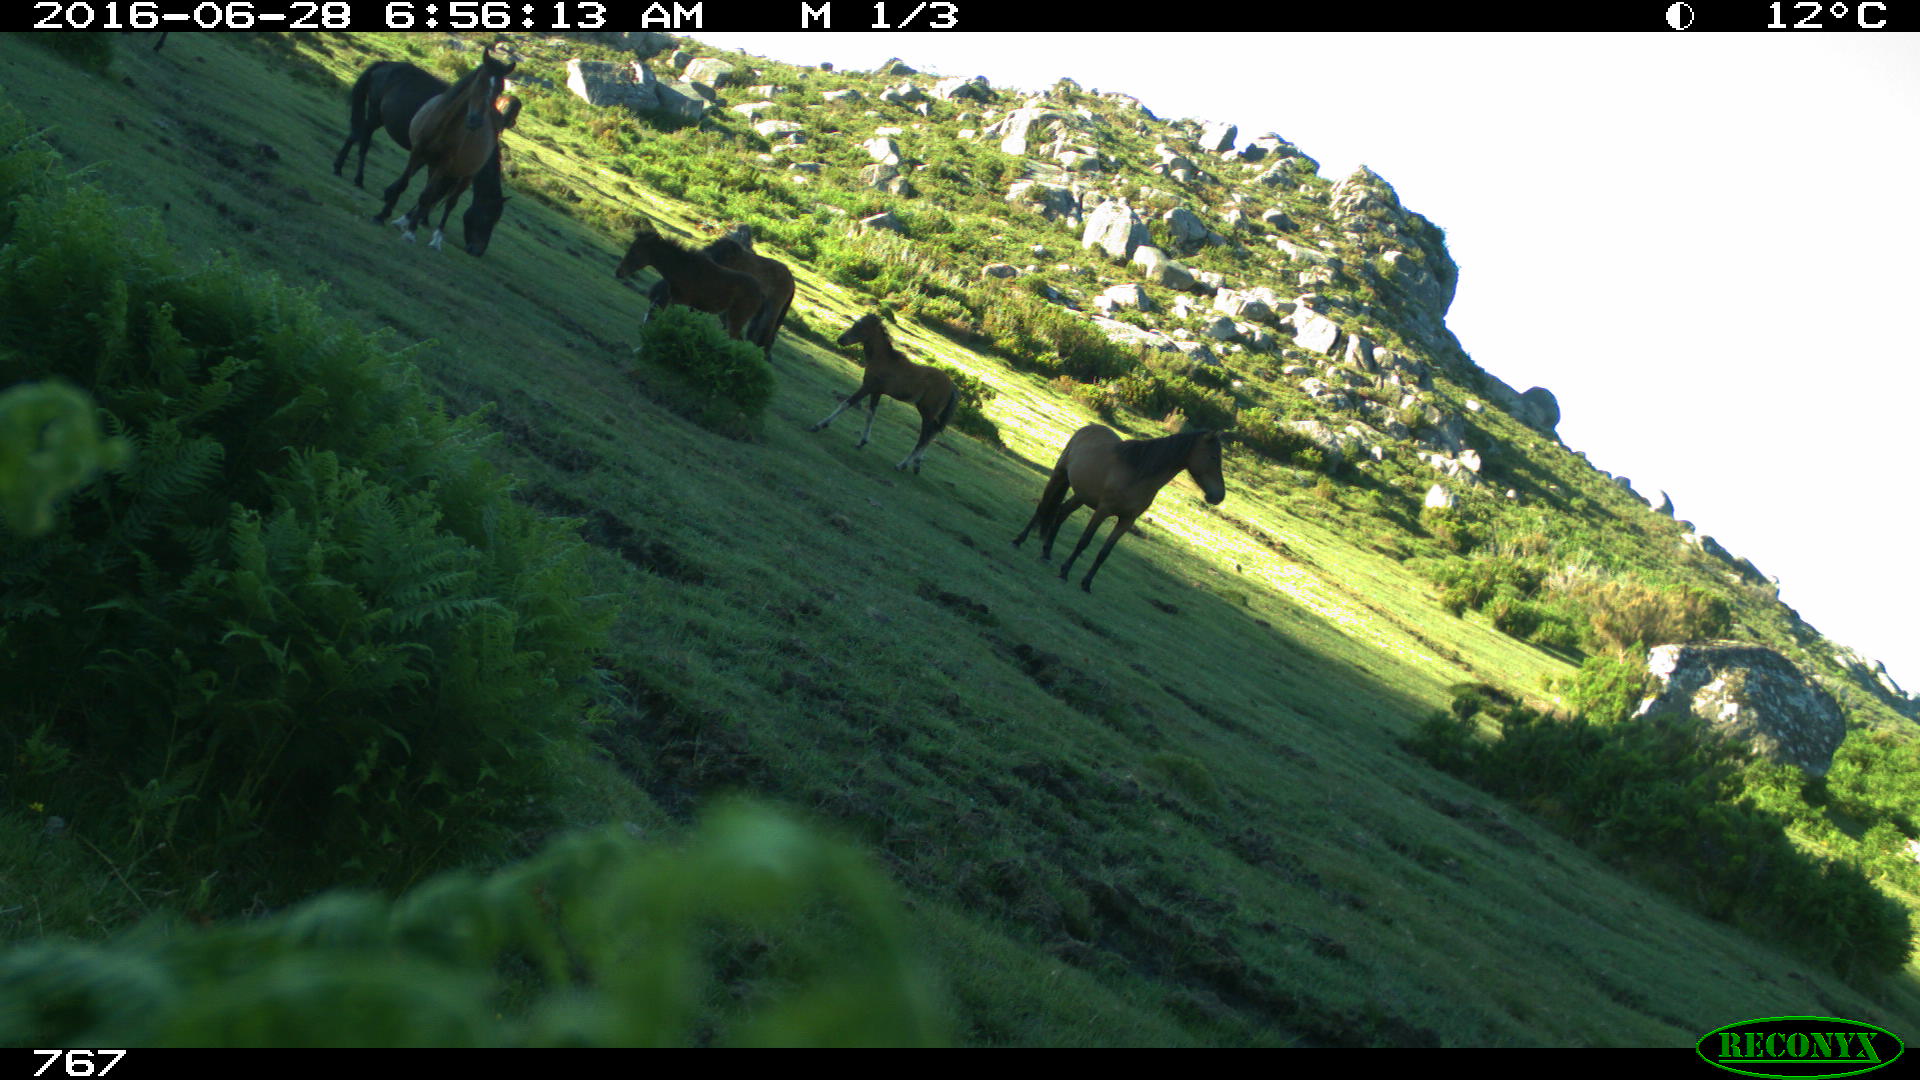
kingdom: Animalia
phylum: Chordata
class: Mammalia
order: Perissodactyla
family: Equidae
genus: Equus
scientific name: Equus caballus
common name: Horse
